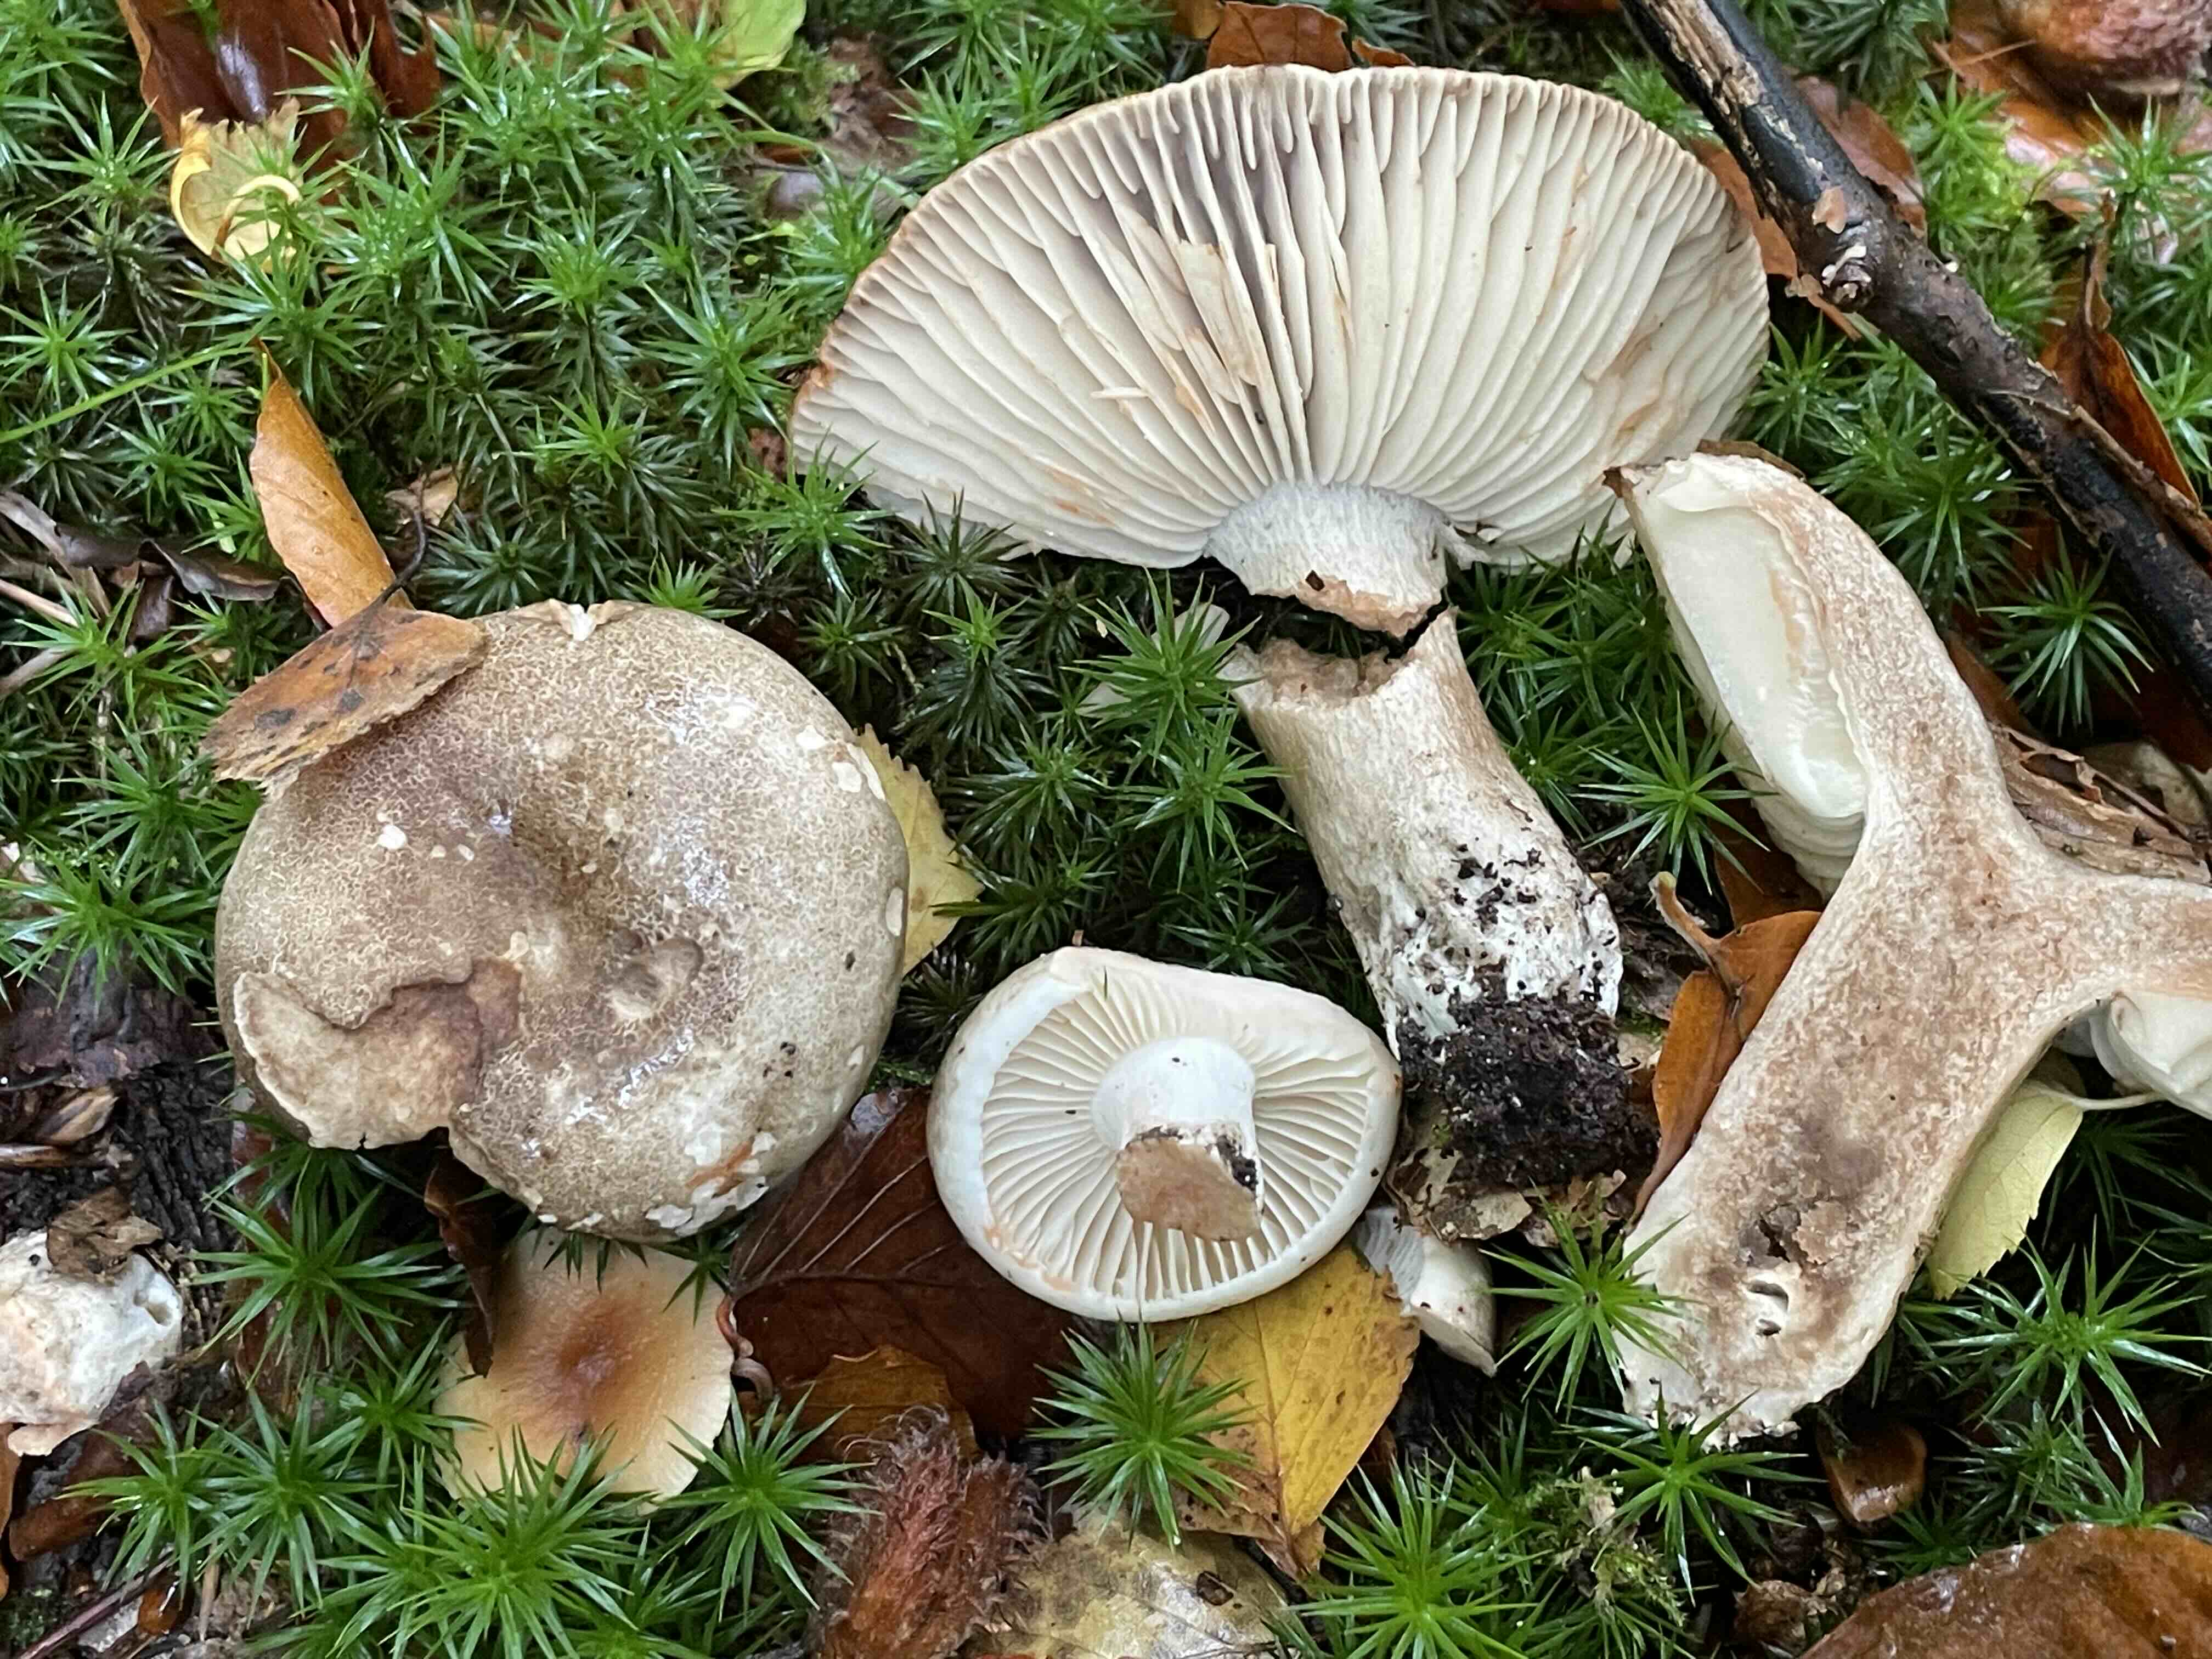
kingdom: Fungi
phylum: Basidiomycota
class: Agaricomycetes
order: Russulales
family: Russulaceae
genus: Russula
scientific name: Russula adusta
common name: sværtende skørhat
